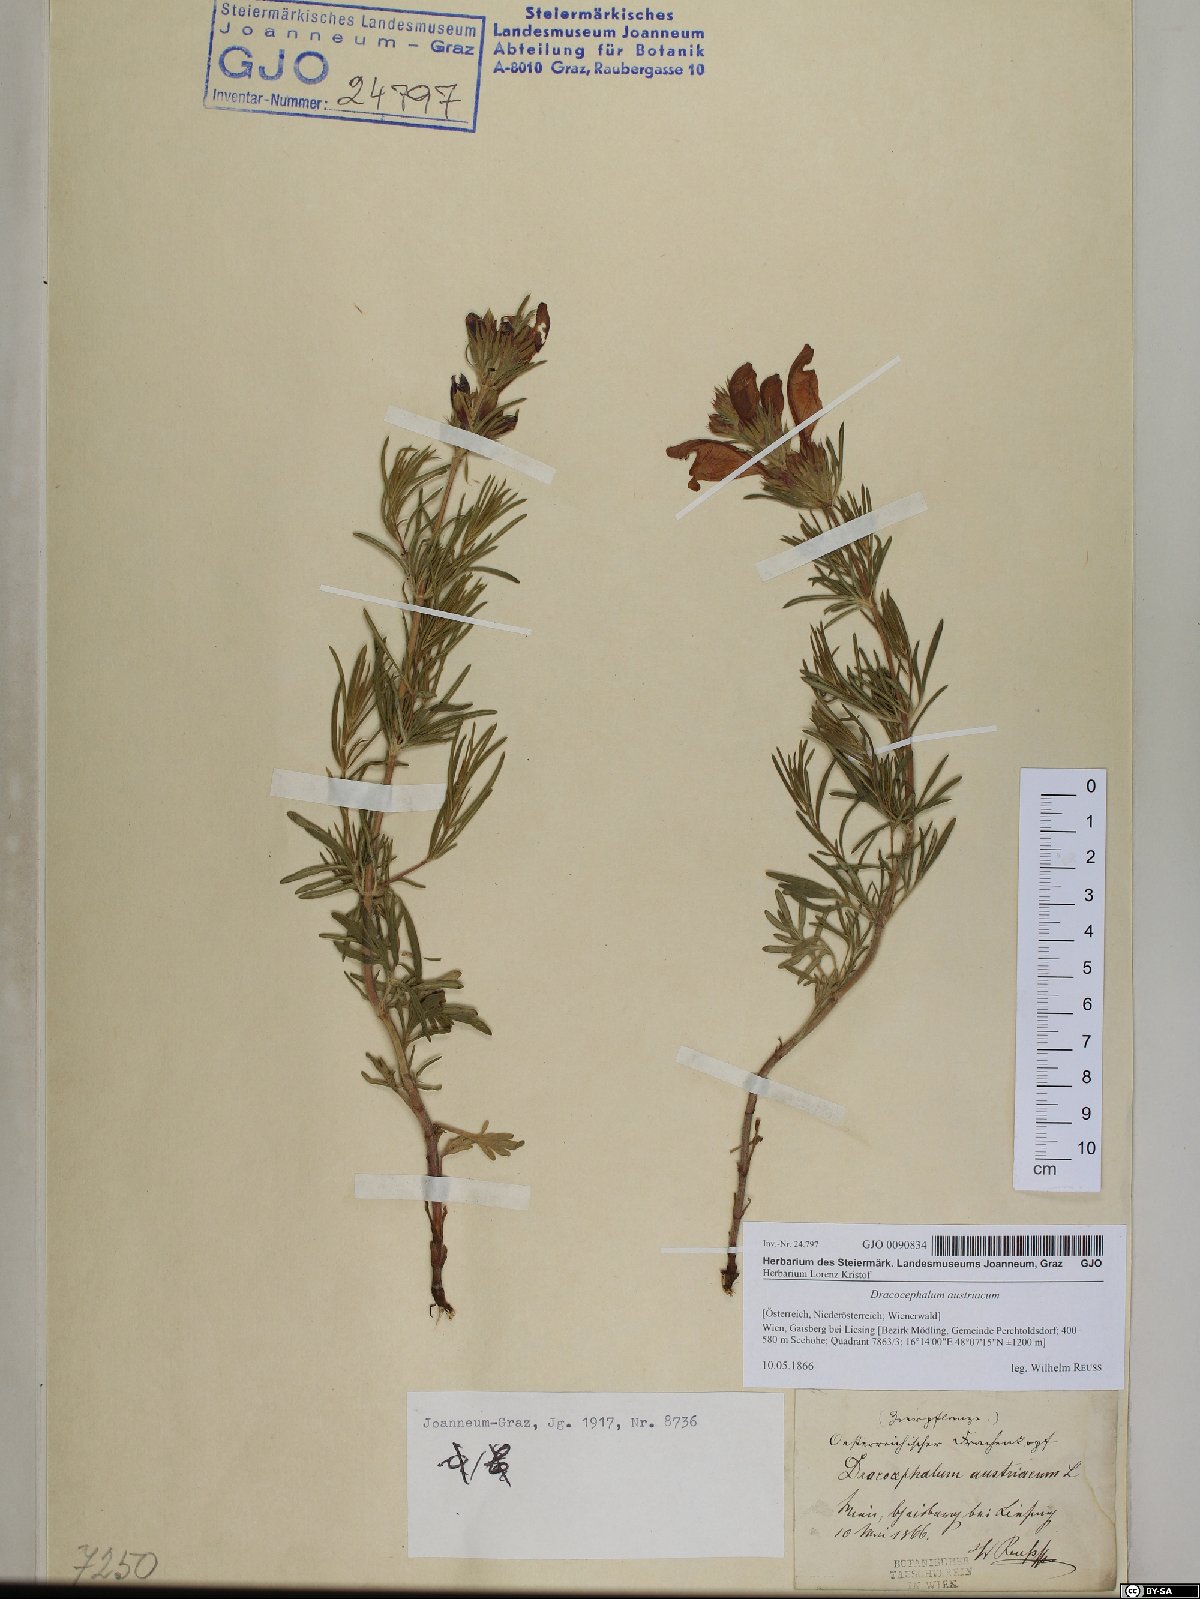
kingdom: Plantae
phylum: Tracheophyta
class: Magnoliopsida
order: Lamiales
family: Lamiaceae
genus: Dracocephalum
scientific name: Dracocephalum austriacum
